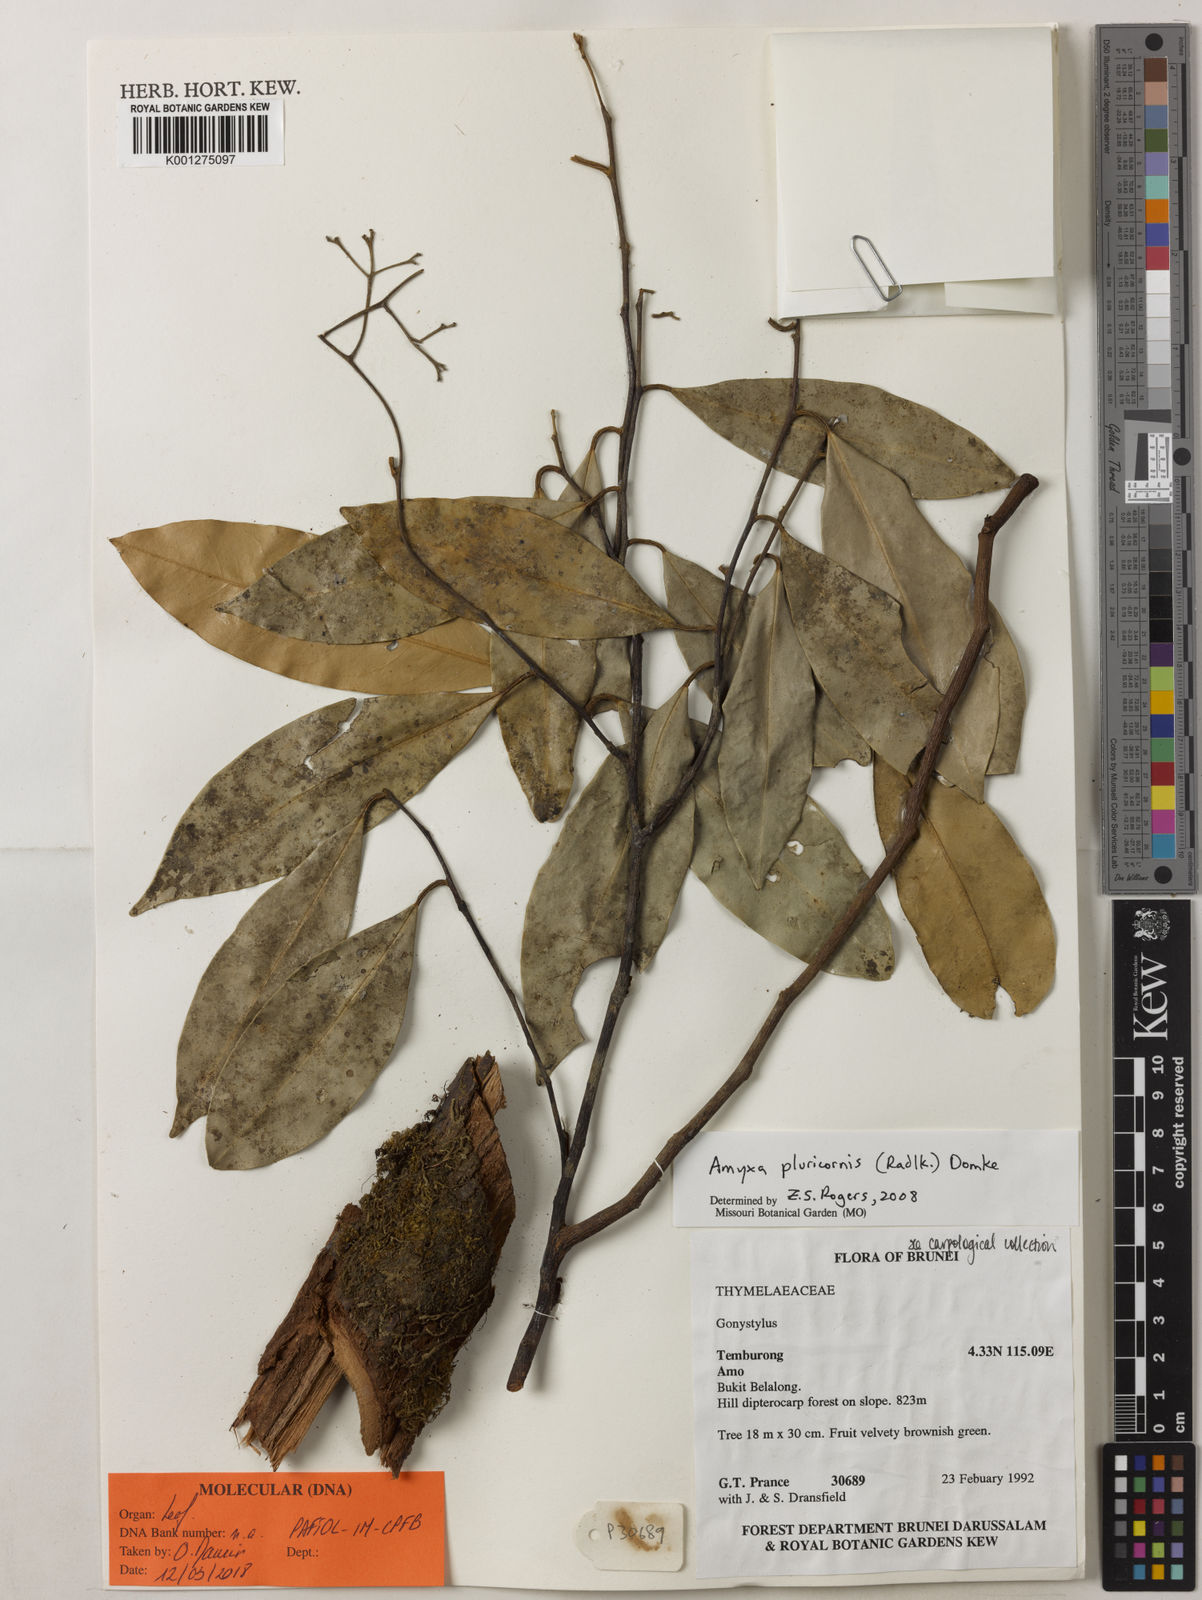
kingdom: Plantae
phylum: Tracheophyta
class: Magnoliopsida
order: Malvales
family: Thymelaeaceae
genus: Amyxa
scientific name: Amyxa pluricornis
